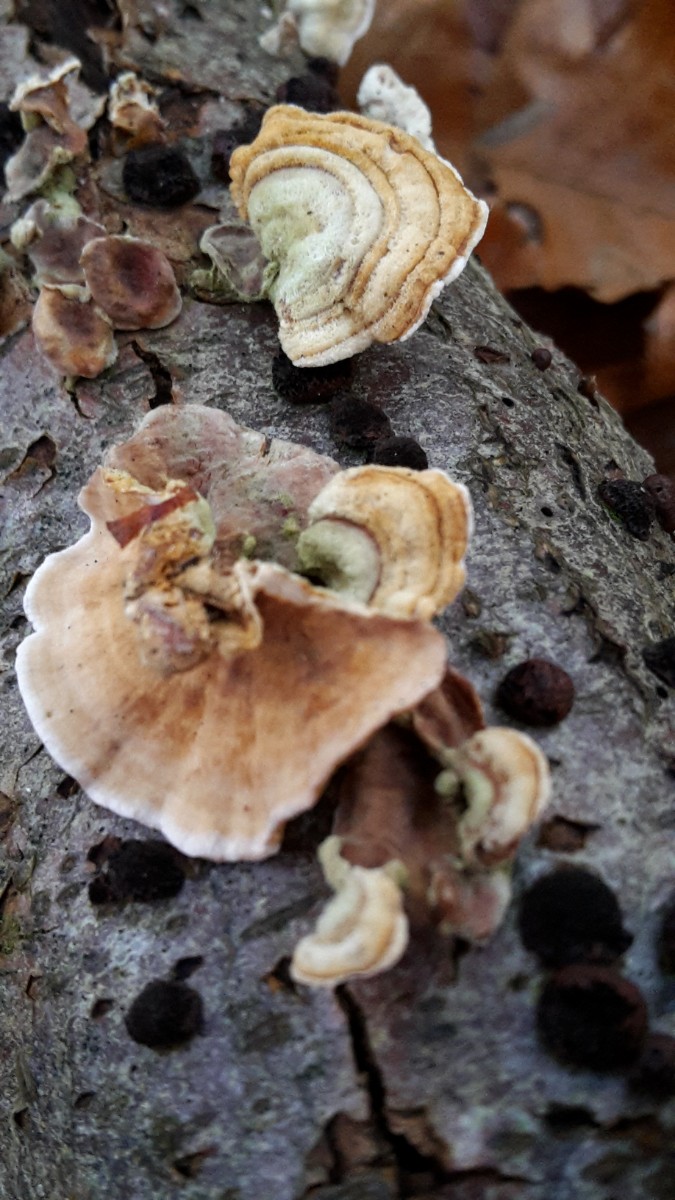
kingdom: Fungi
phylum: Basidiomycota
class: Agaricomycetes
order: Russulales
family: Stereaceae
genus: Stereum
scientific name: Stereum subtomentosum
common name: smuk lædersvamp
